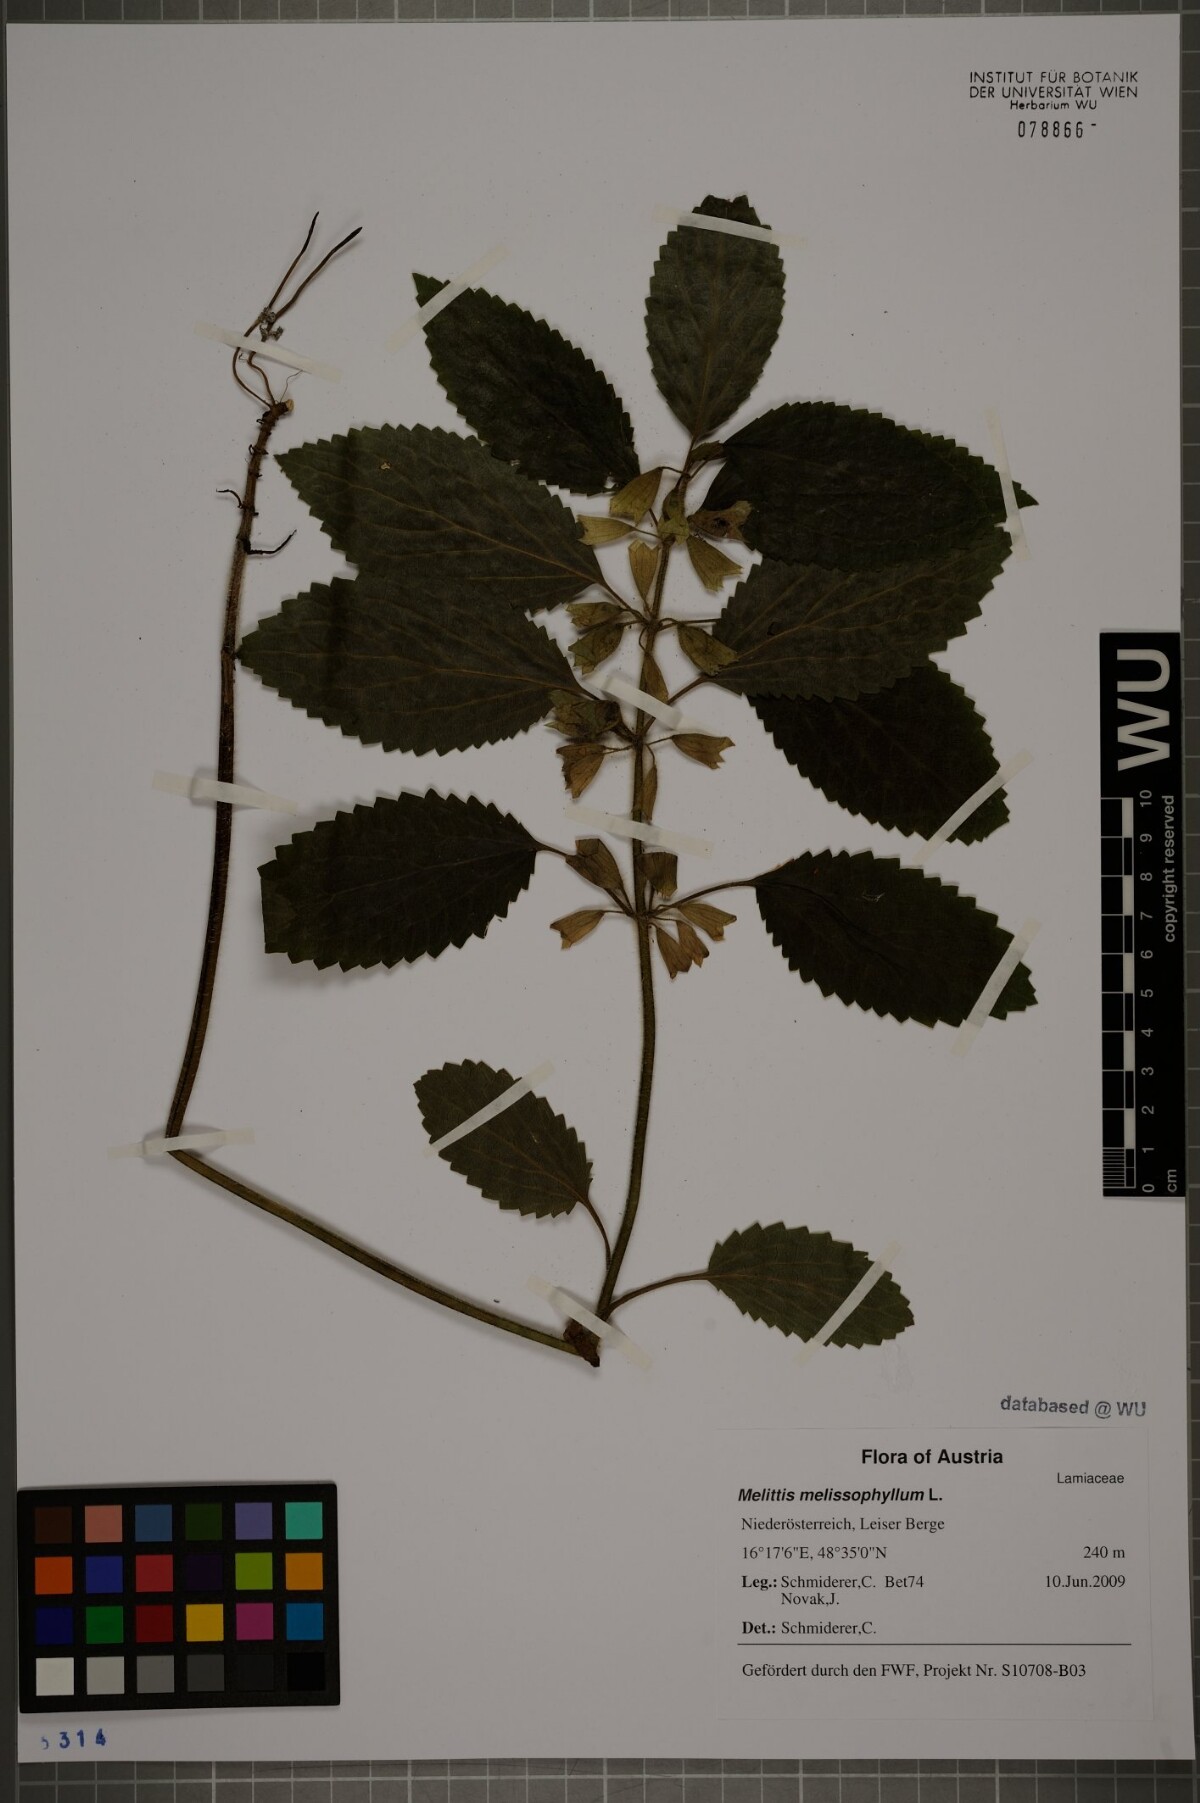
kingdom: Plantae
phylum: Tracheophyta
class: Magnoliopsida
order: Lamiales
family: Lamiaceae
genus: Melittis
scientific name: Melittis melissophyllum
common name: Bastard balm
